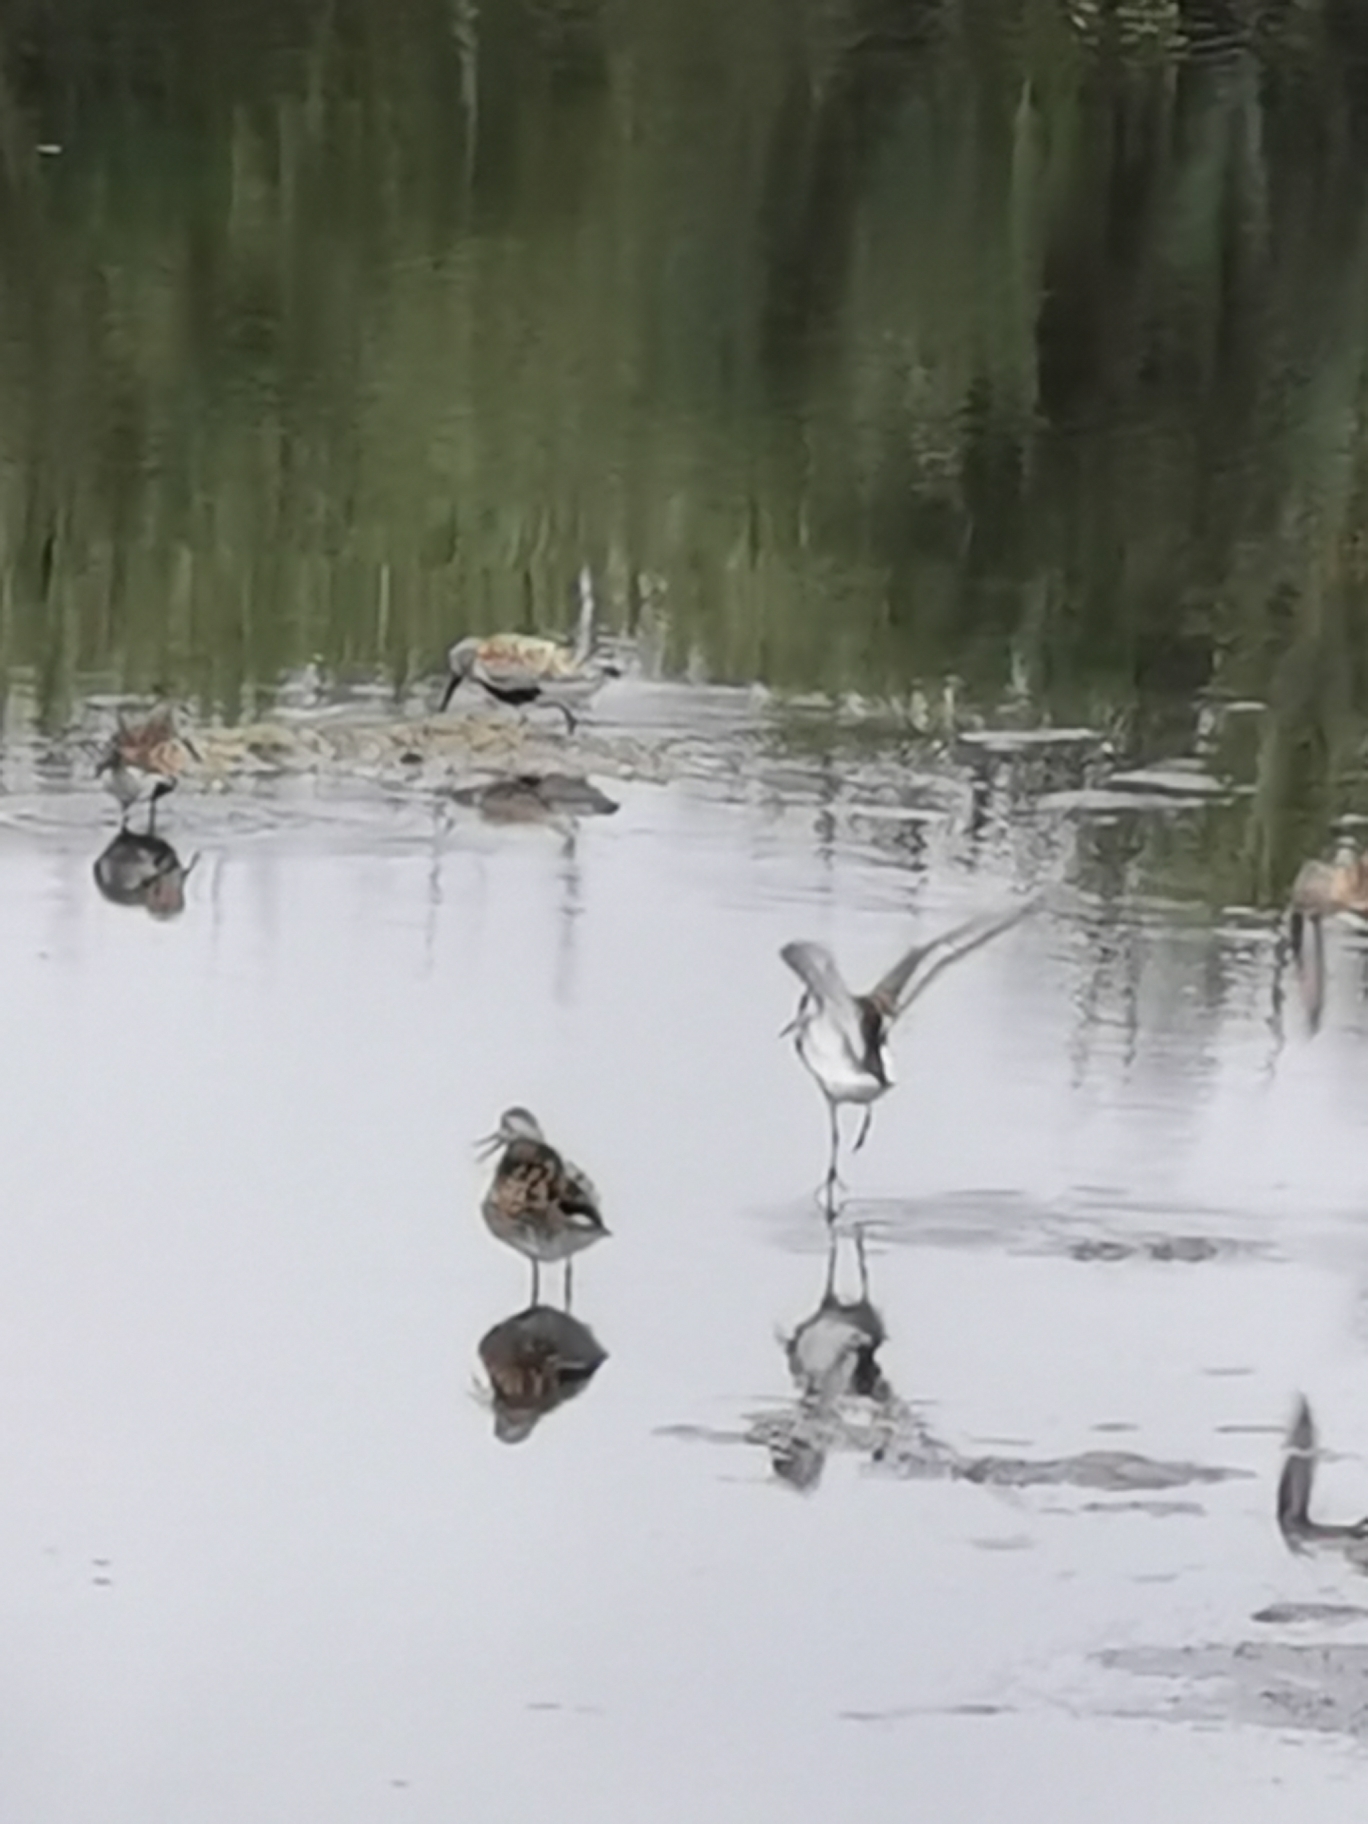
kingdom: Animalia
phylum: Chordata
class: Aves
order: Charadriiformes
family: Scolopacidae
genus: Calidris
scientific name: Calidris alpina
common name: Almindelig ryle
